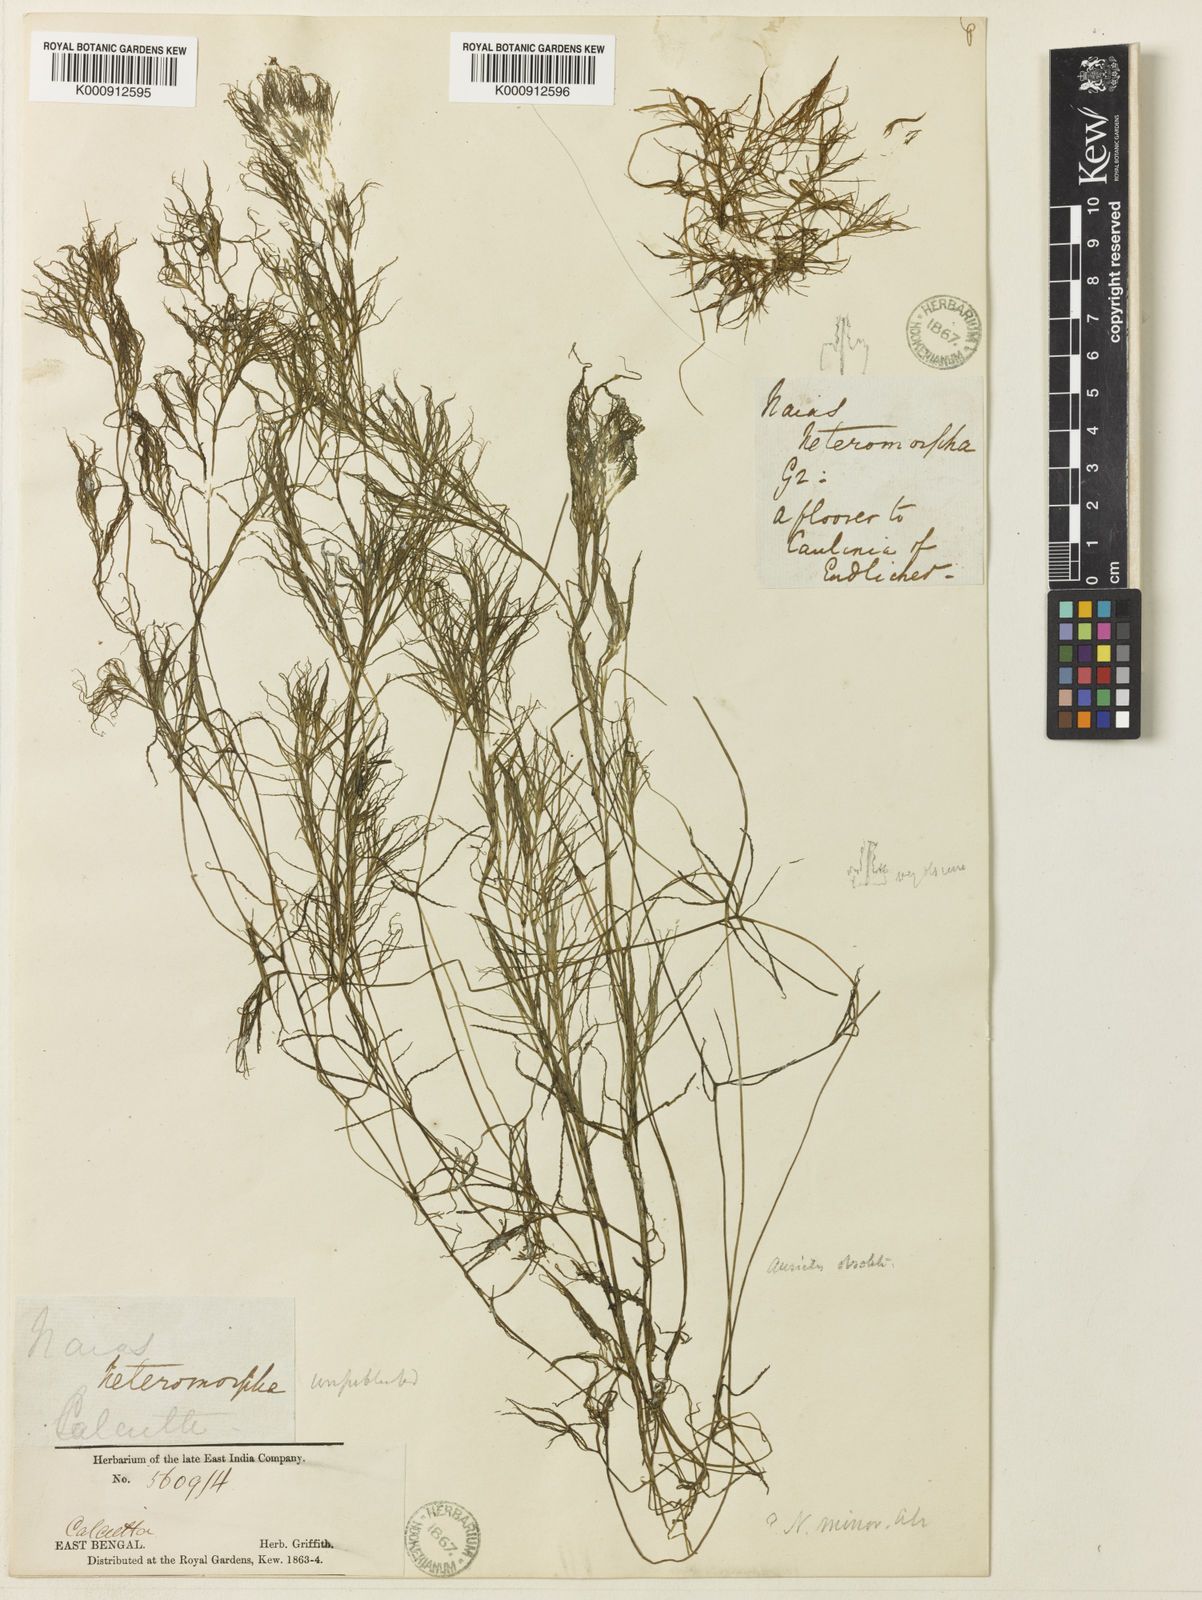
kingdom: Plantae
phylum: Tracheophyta
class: Liliopsida
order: Alismatales
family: Hydrocharitaceae
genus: Najas
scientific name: Najas indica
